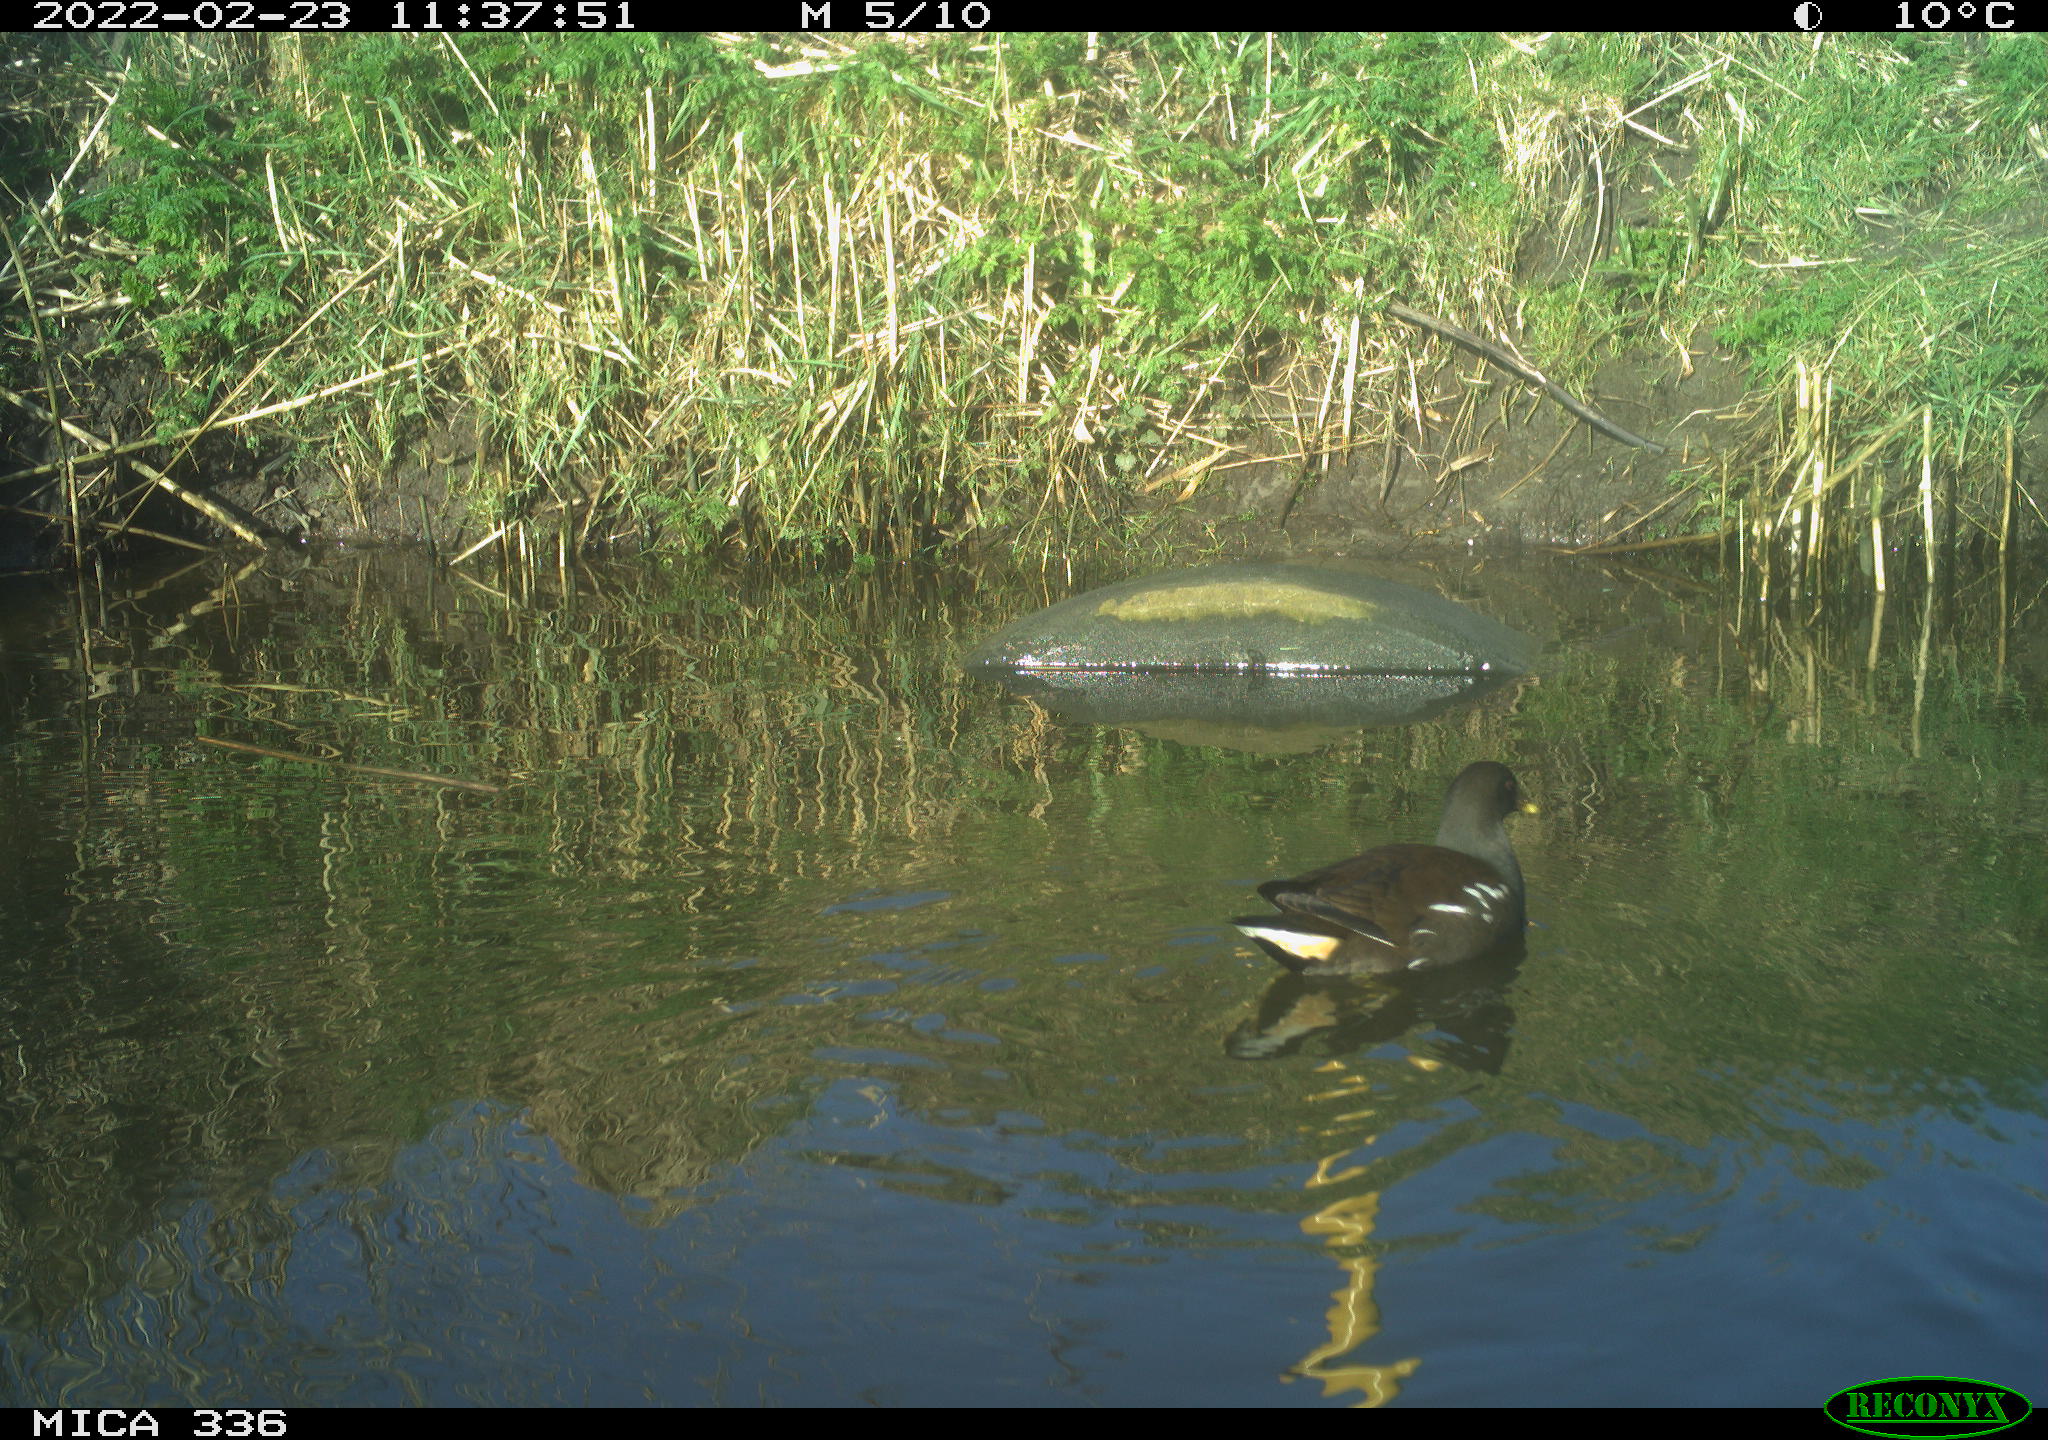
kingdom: Animalia
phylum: Chordata
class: Aves
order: Gruiformes
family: Rallidae
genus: Gallinula
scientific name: Gallinula chloropus
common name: Common moorhen
